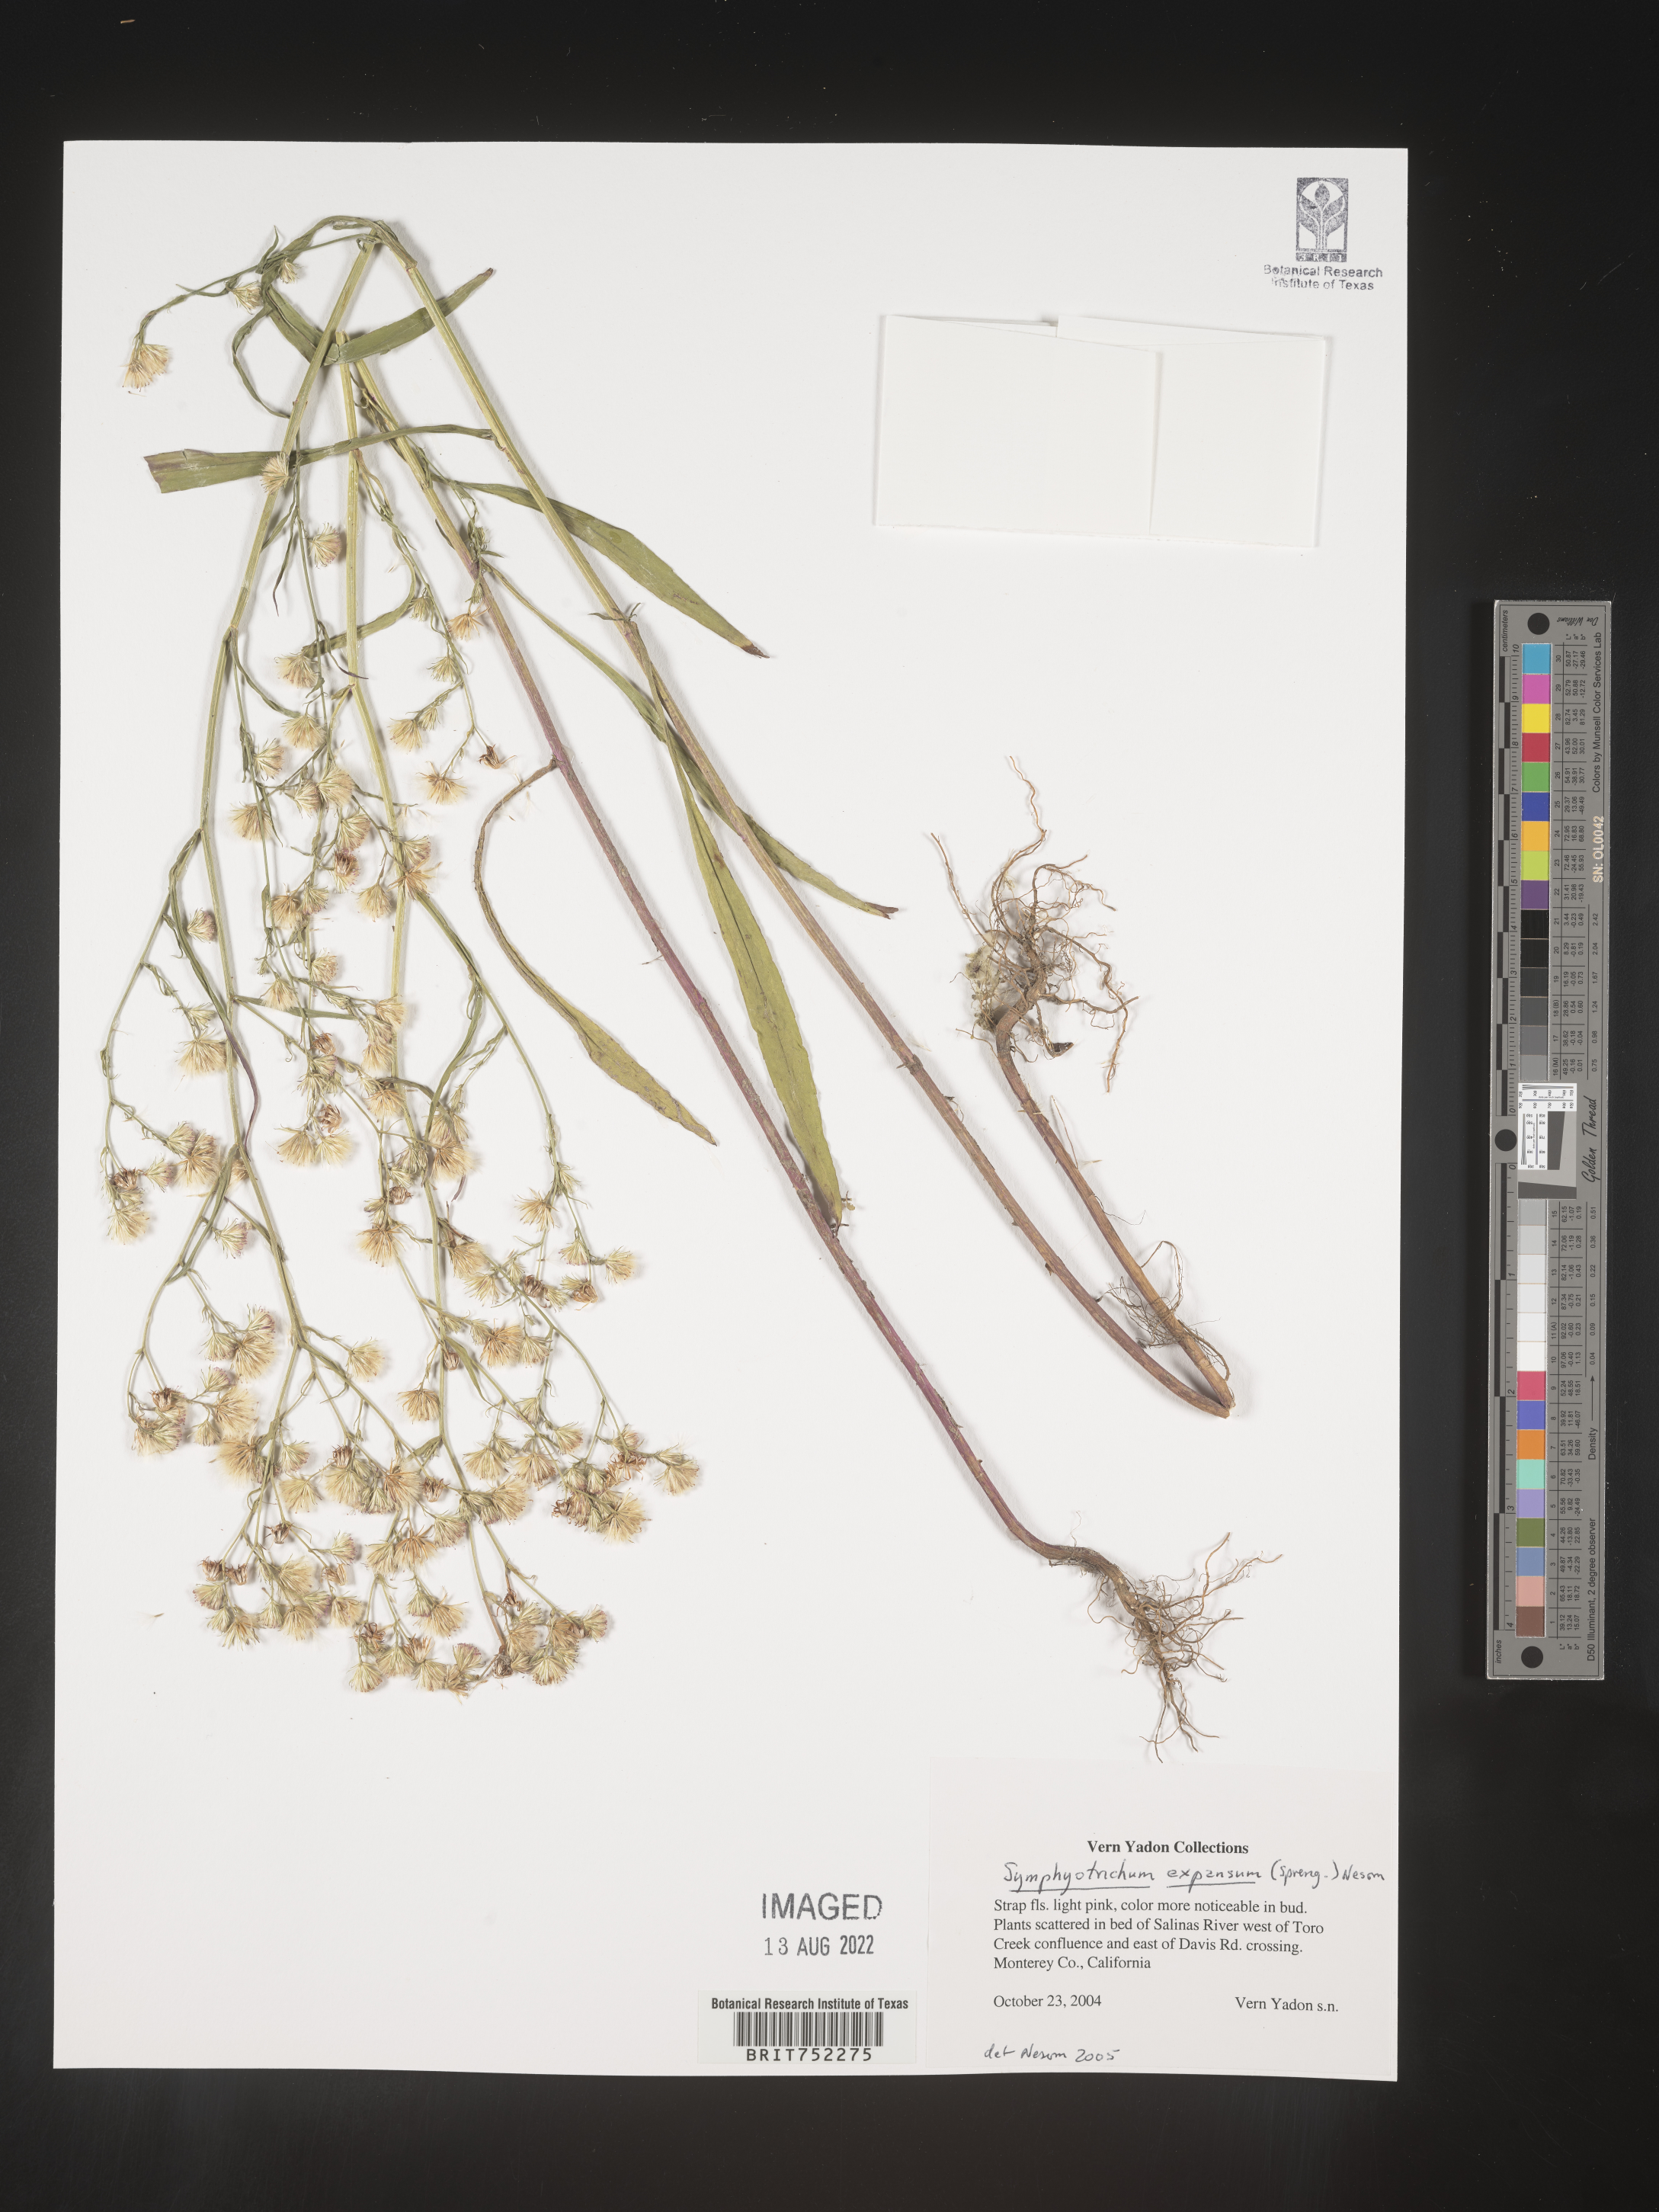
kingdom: Plantae
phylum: Tracheophyta
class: Magnoliopsida
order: Asterales
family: Asteraceae
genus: Symphyotrichum
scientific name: Symphyotrichum expansum
